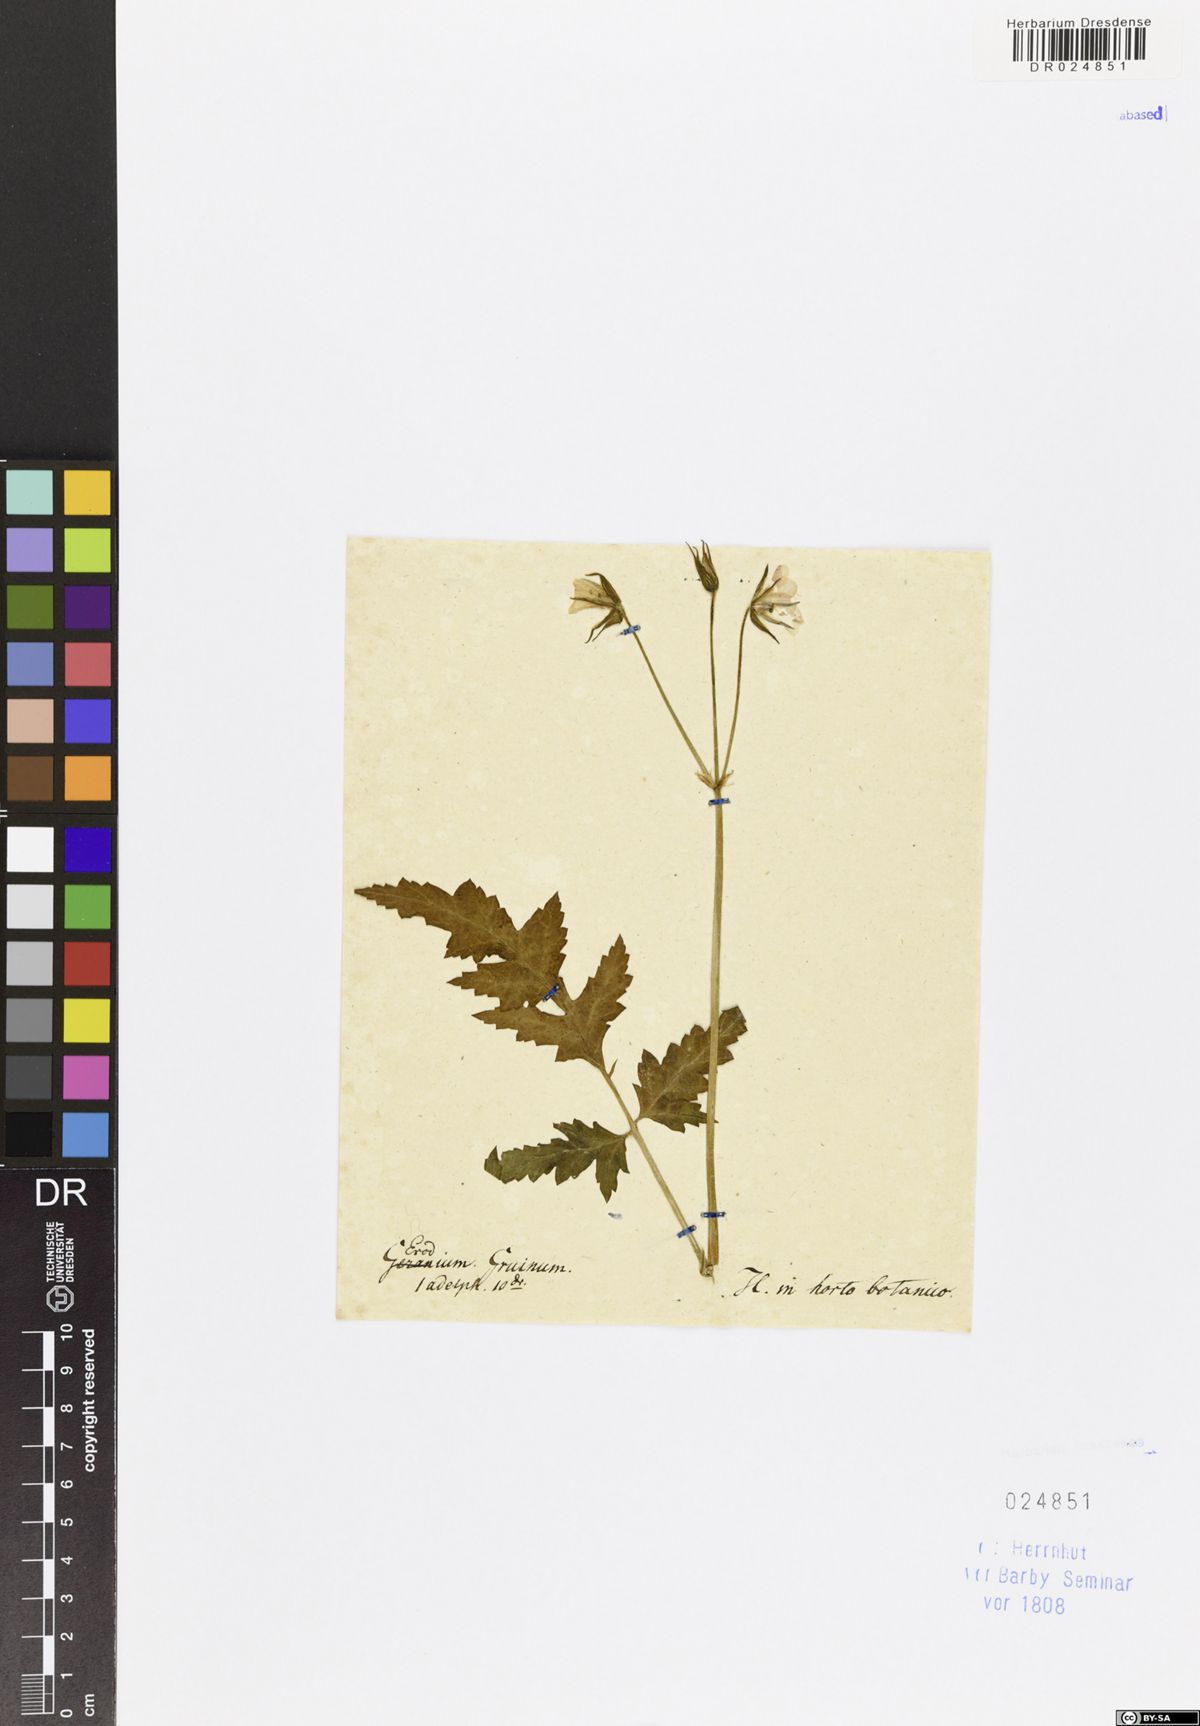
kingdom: Plantae
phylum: Tracheophyta
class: Magnoliopsida
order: Geraniales
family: Geraniaceae
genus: Erodium
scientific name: Erodium gruinum
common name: Iranian stork's bill
